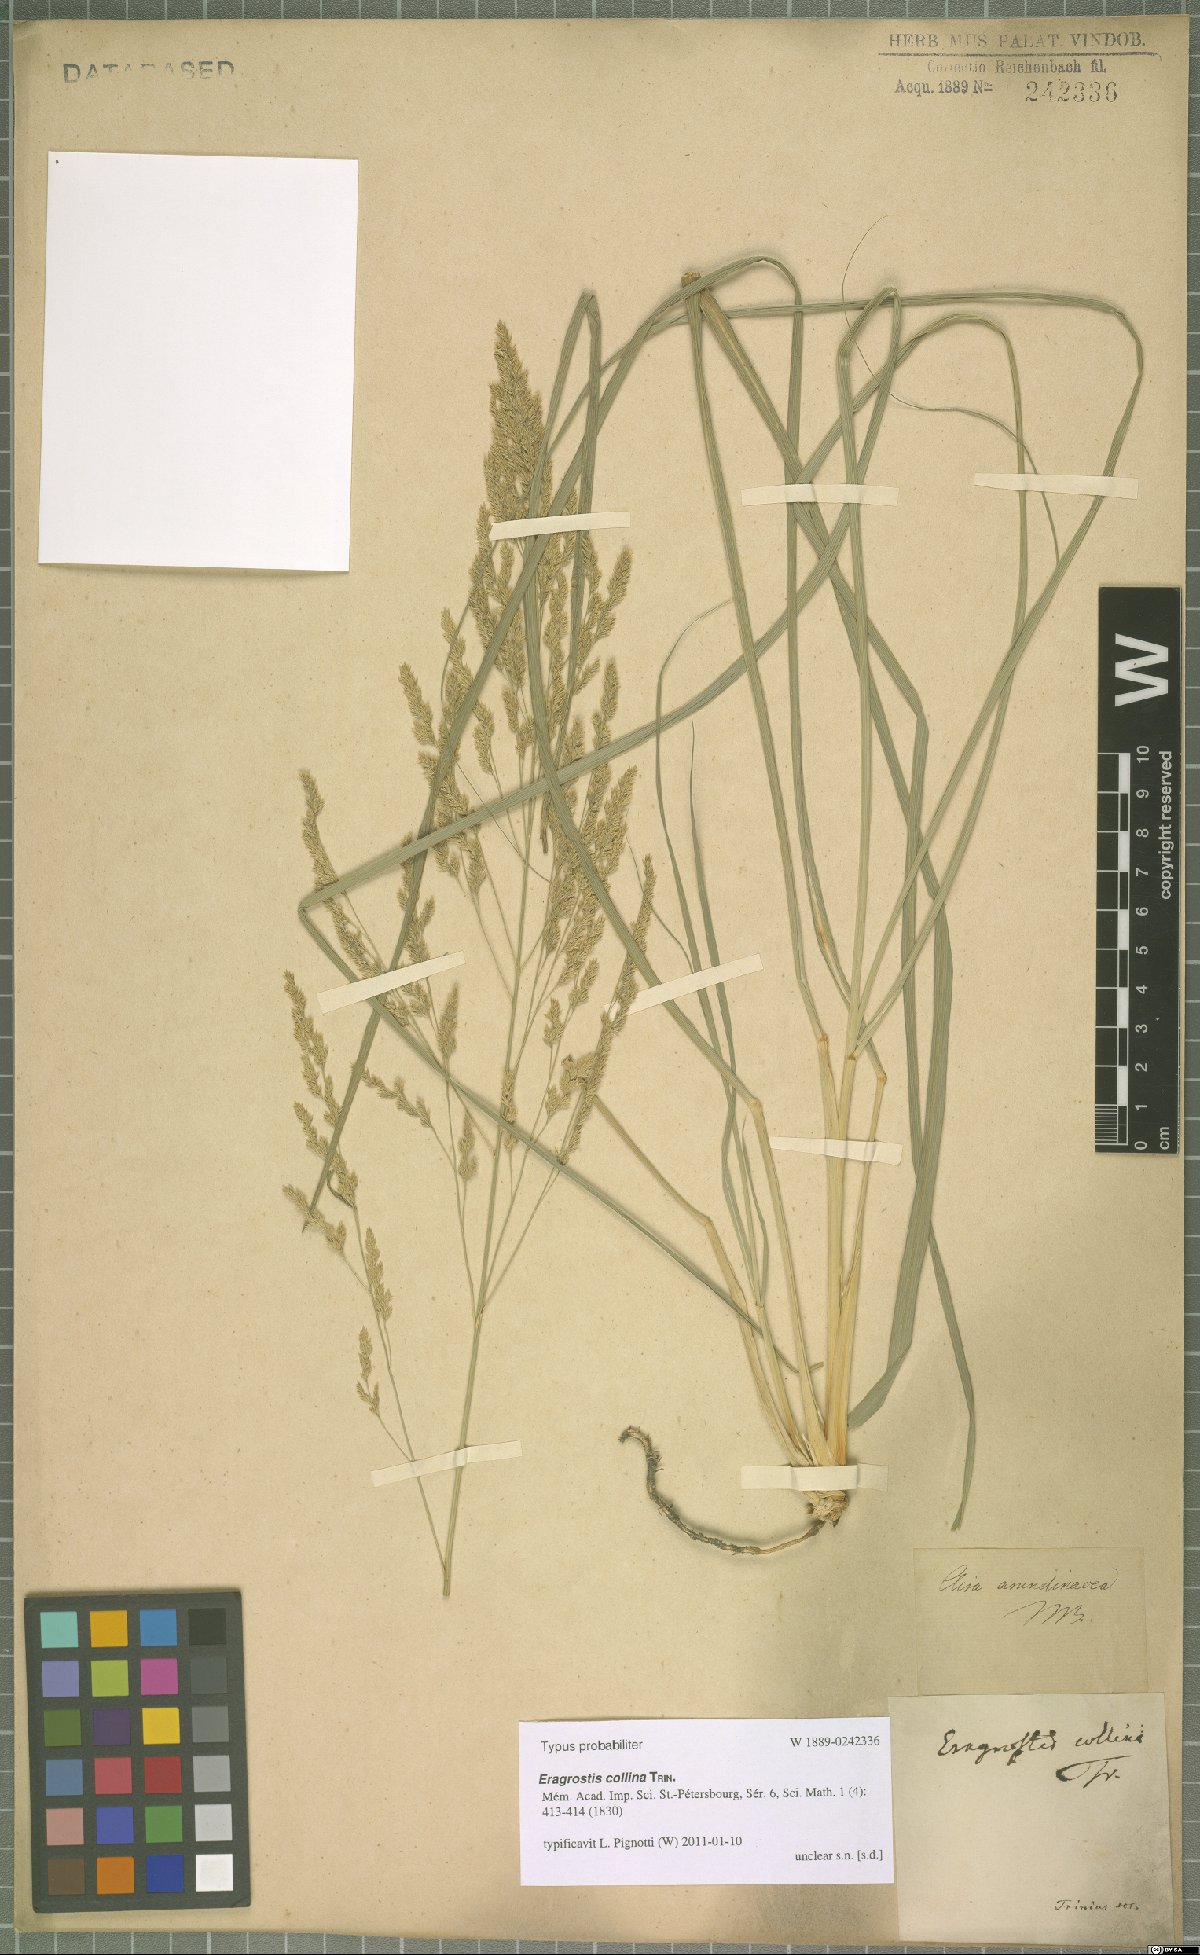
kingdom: Plantae
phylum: Tracheophyta
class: Liliopsida
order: Poales
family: Poaceae
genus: Eragrostis
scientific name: Eragrostis collina
